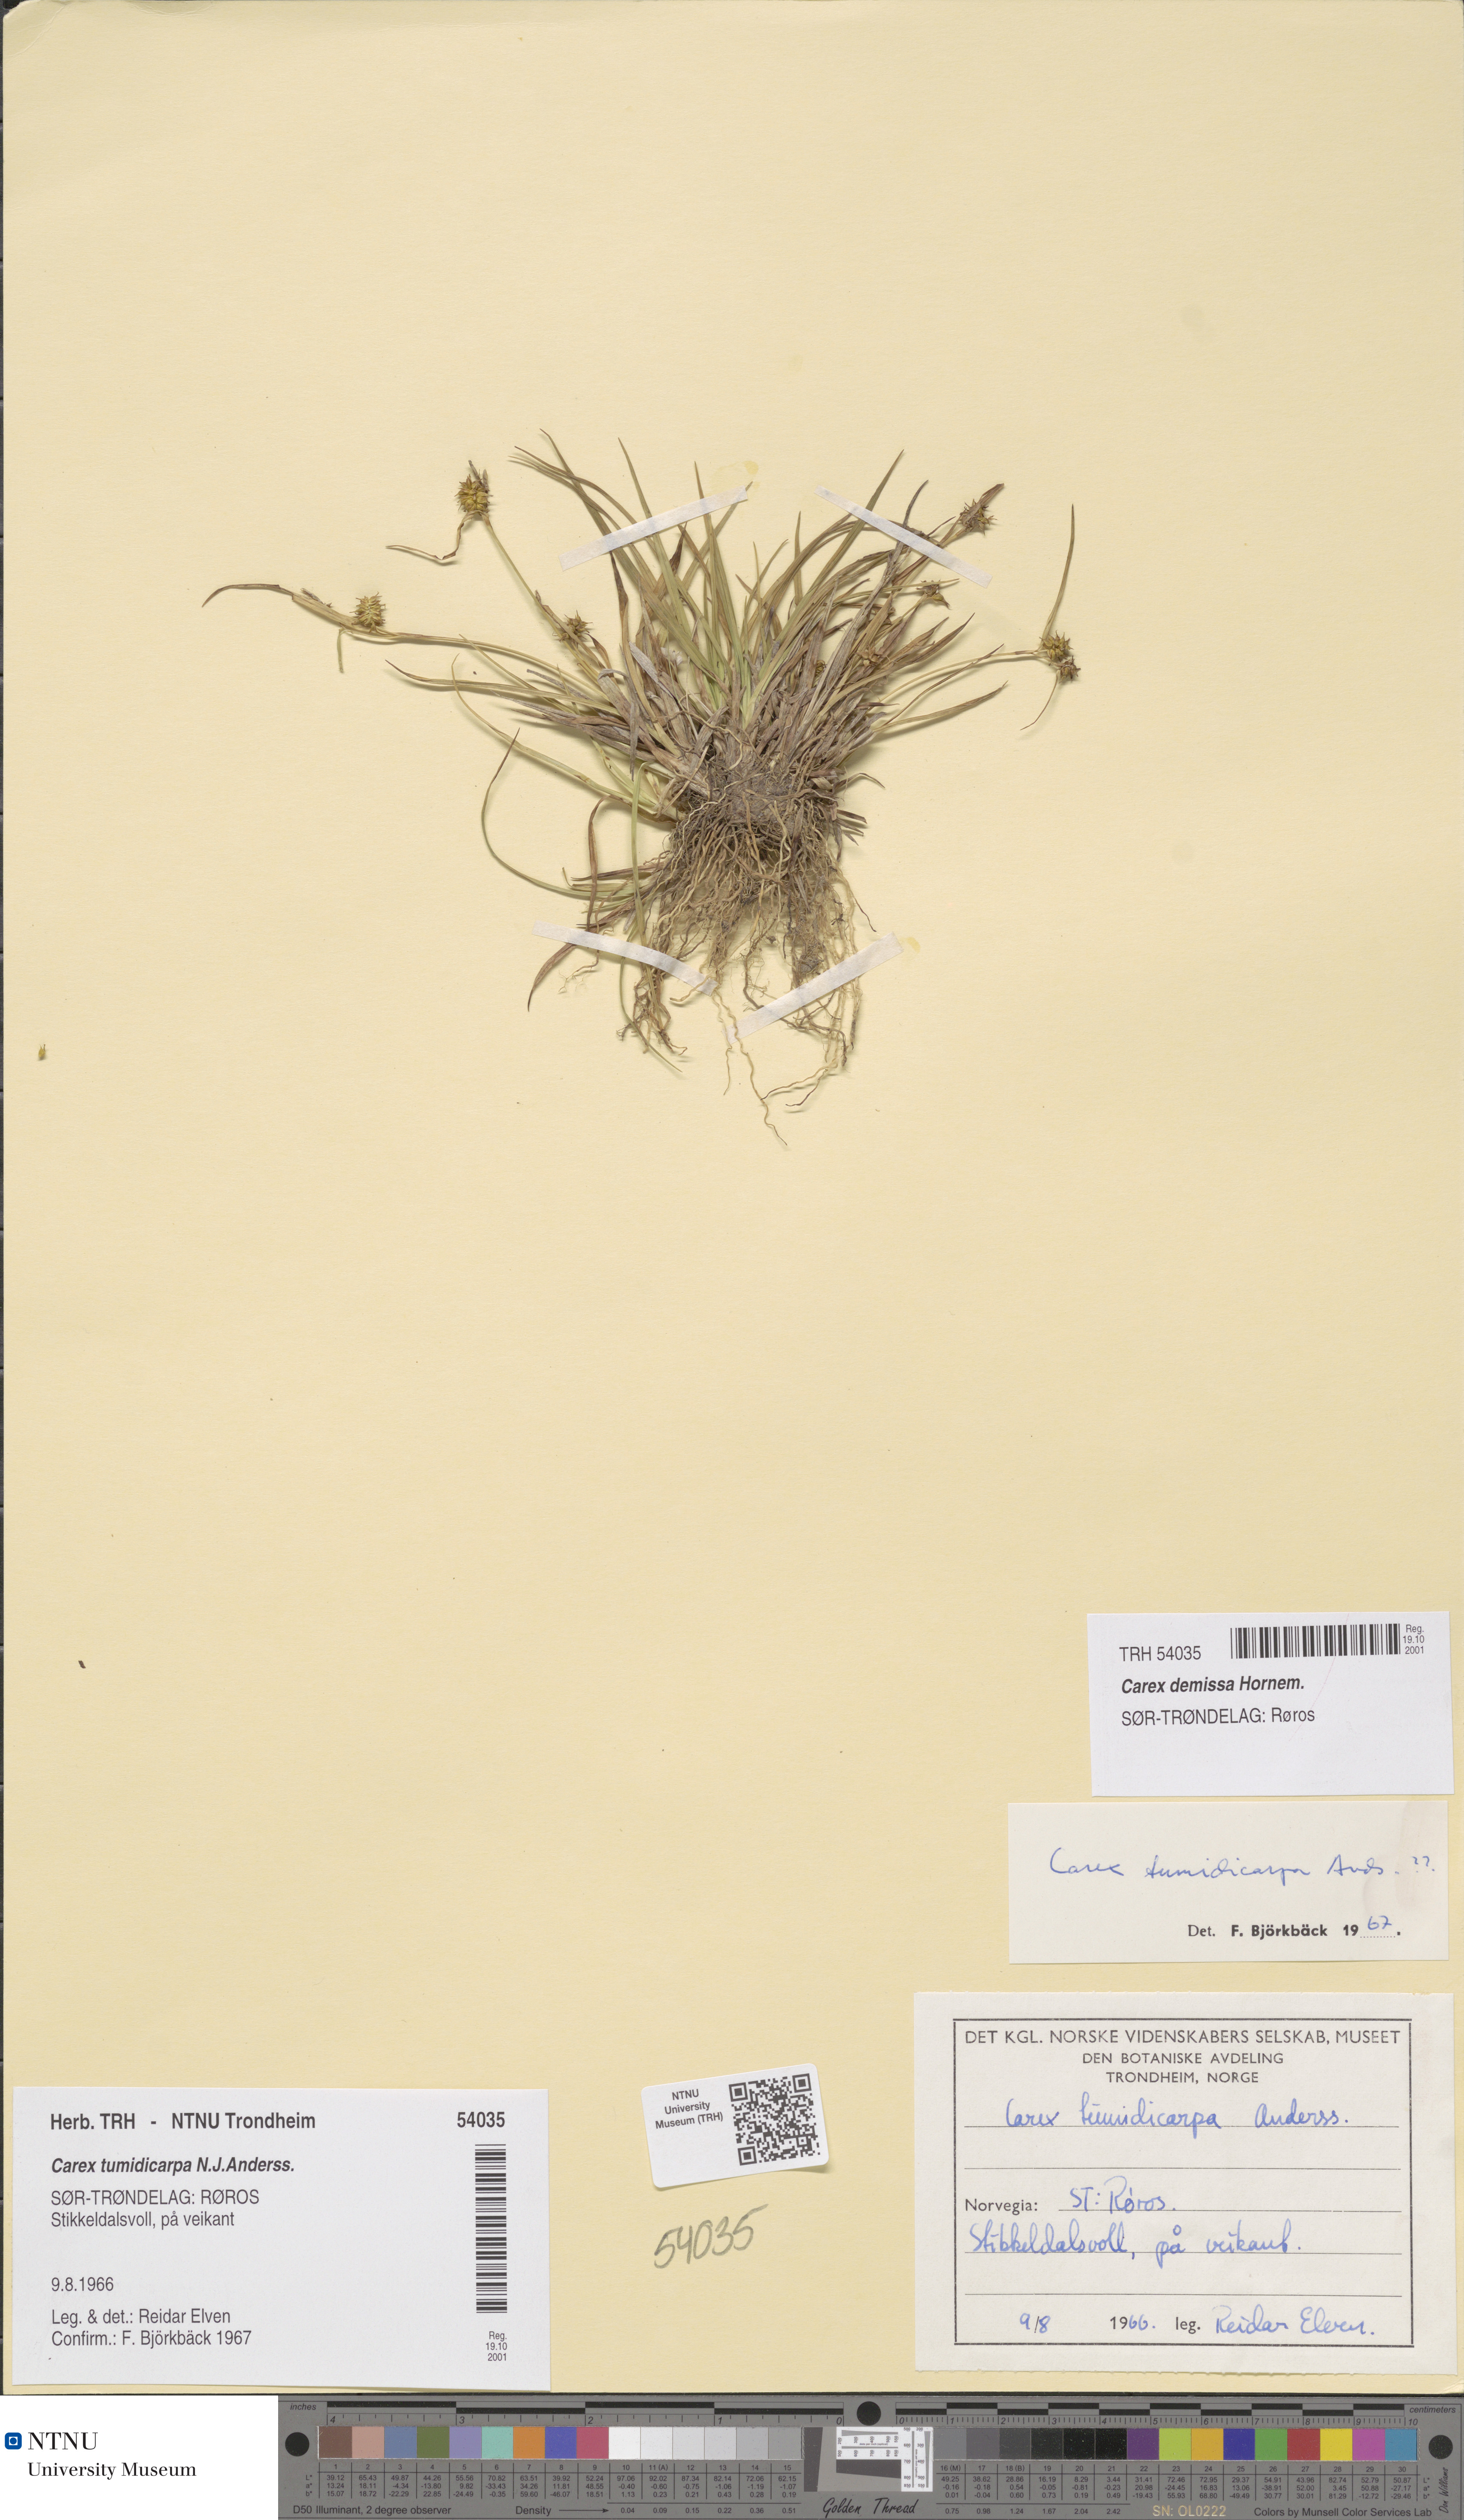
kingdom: Plantae
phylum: Tracheophyta
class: Liliopsida
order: Poales
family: Cyperaceae
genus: Carex
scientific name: Carex demissa
